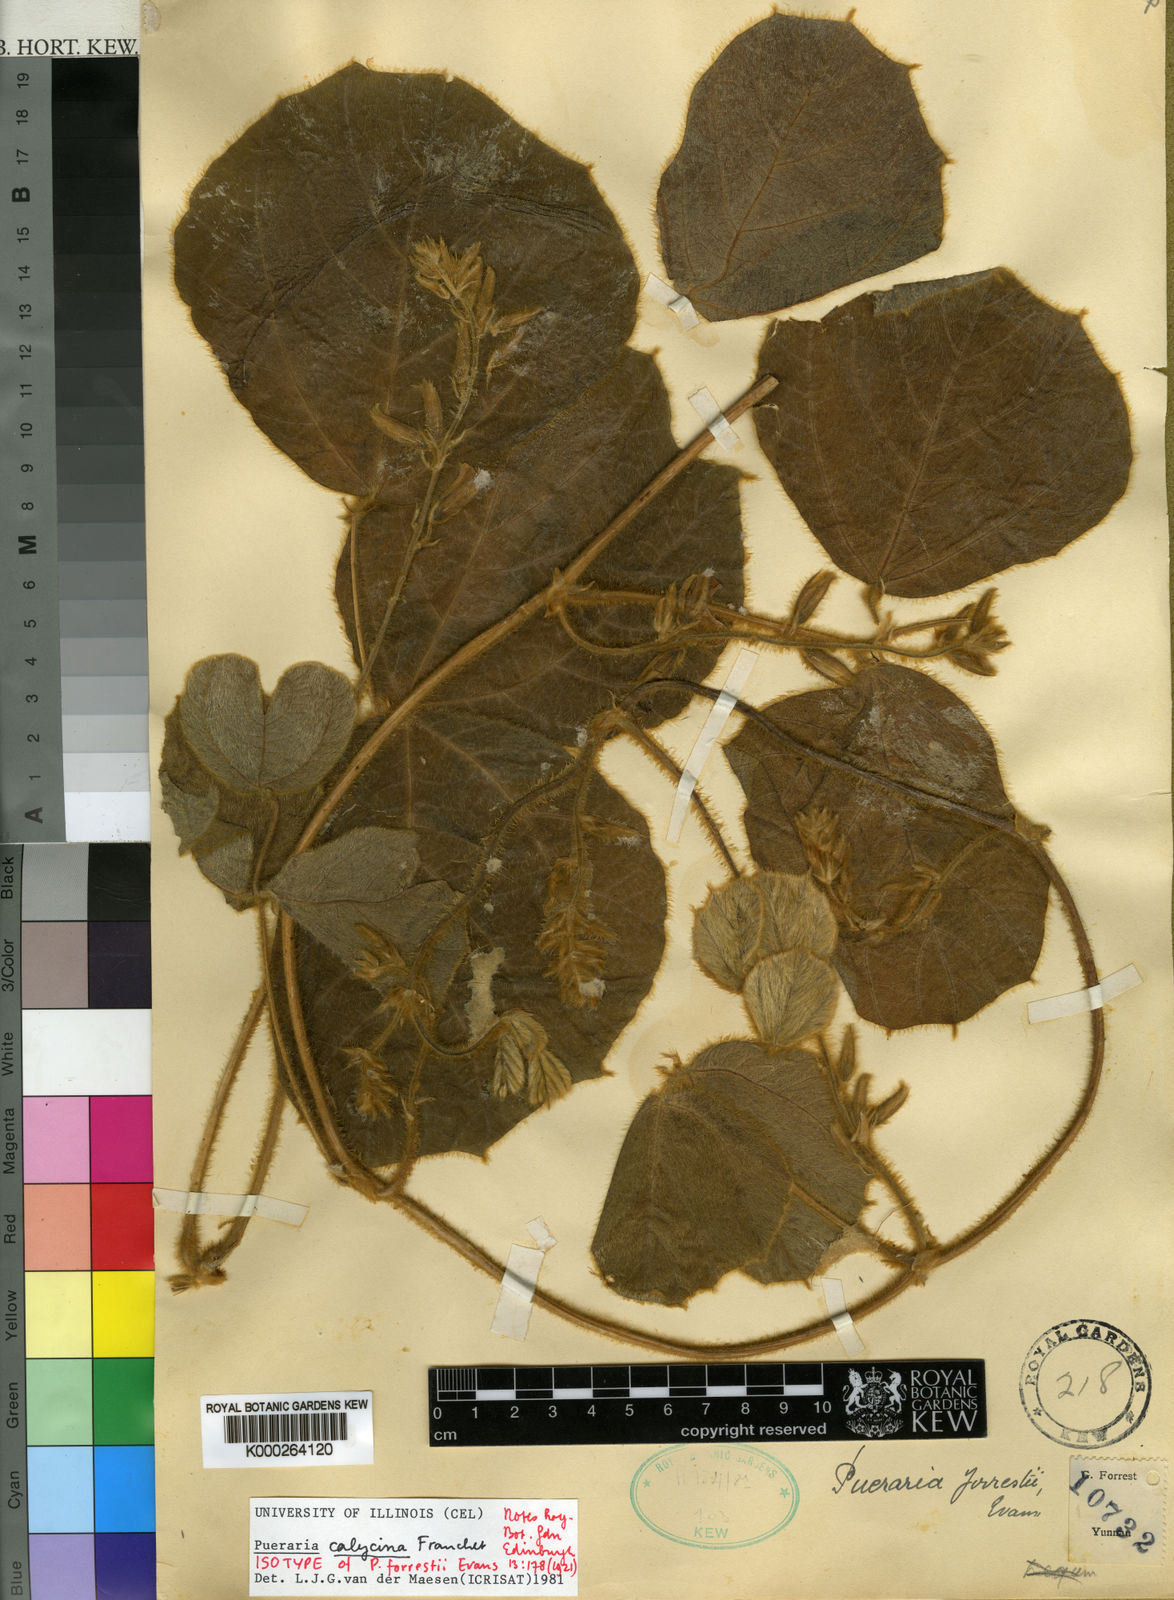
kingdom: Plantae
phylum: Tracheophyta
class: Magnoliopsida
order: Fabales
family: Fabaceae
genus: Pueraria
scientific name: Pueraria calycina
